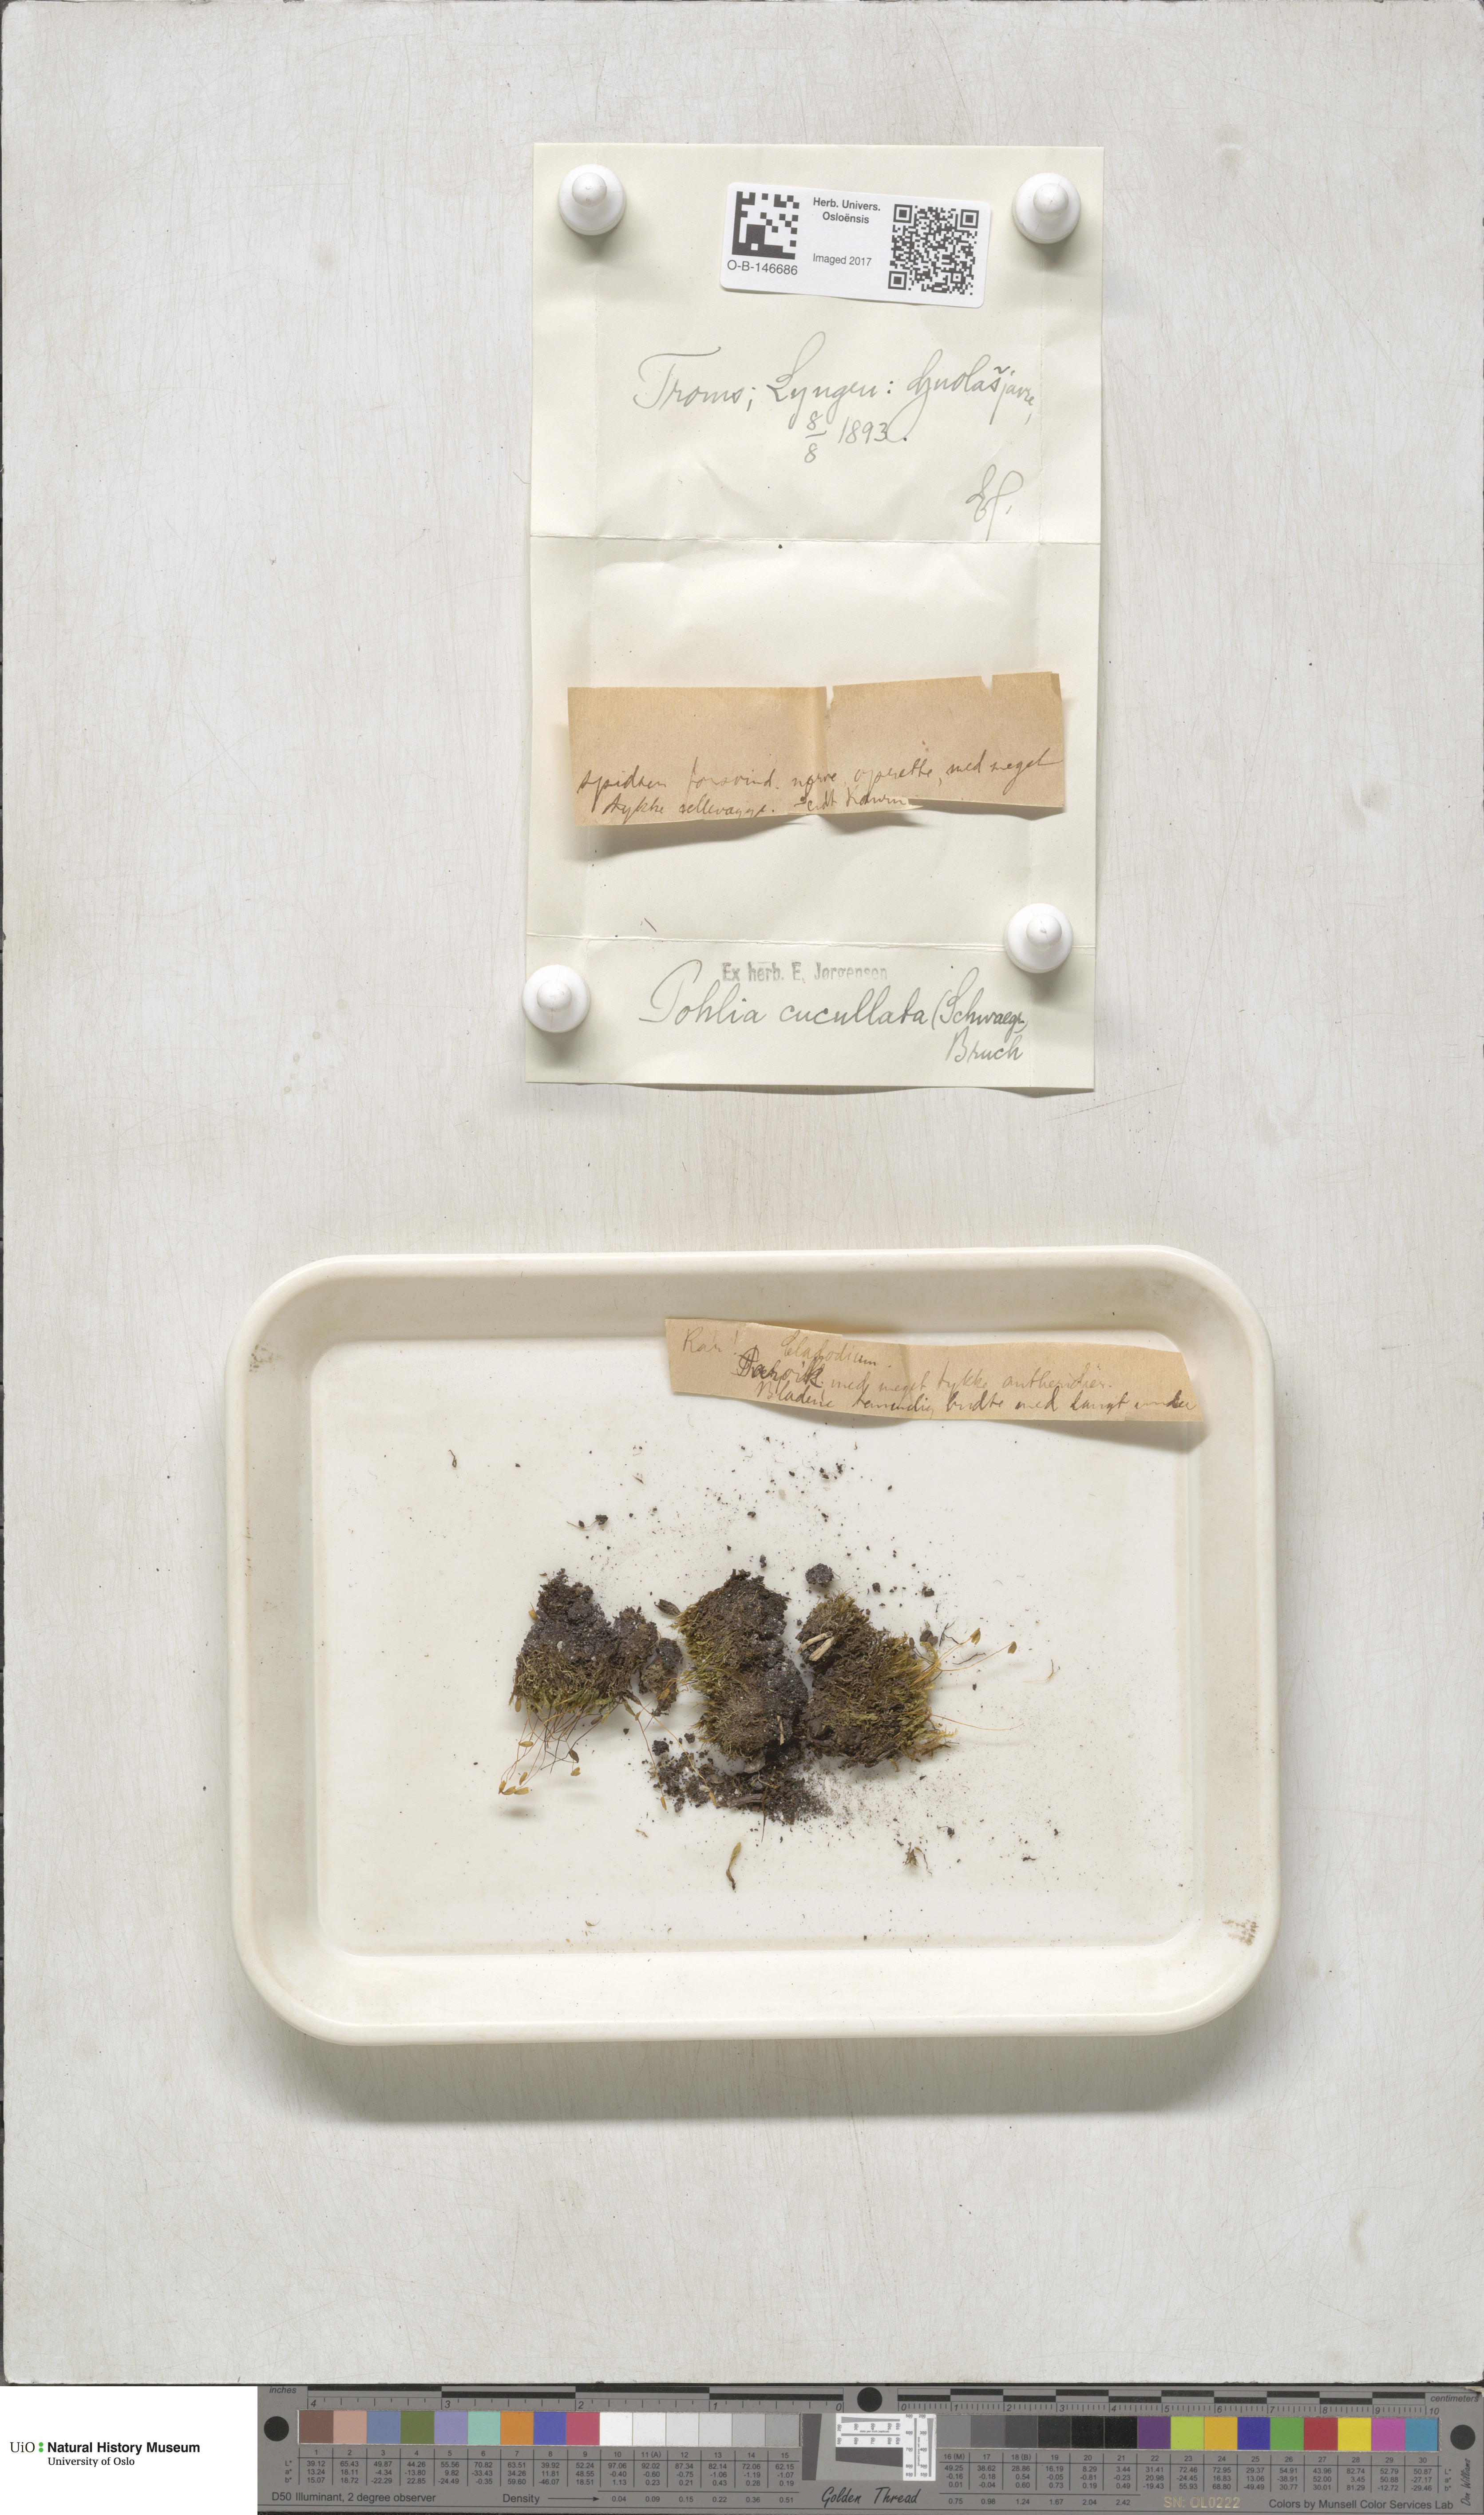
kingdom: Plantae
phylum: Bryophyta
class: Bryopsida
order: Bryales
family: Mniaceae
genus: Pohlia
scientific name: Pohlia obtusifolia
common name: Blunt nodding moss
